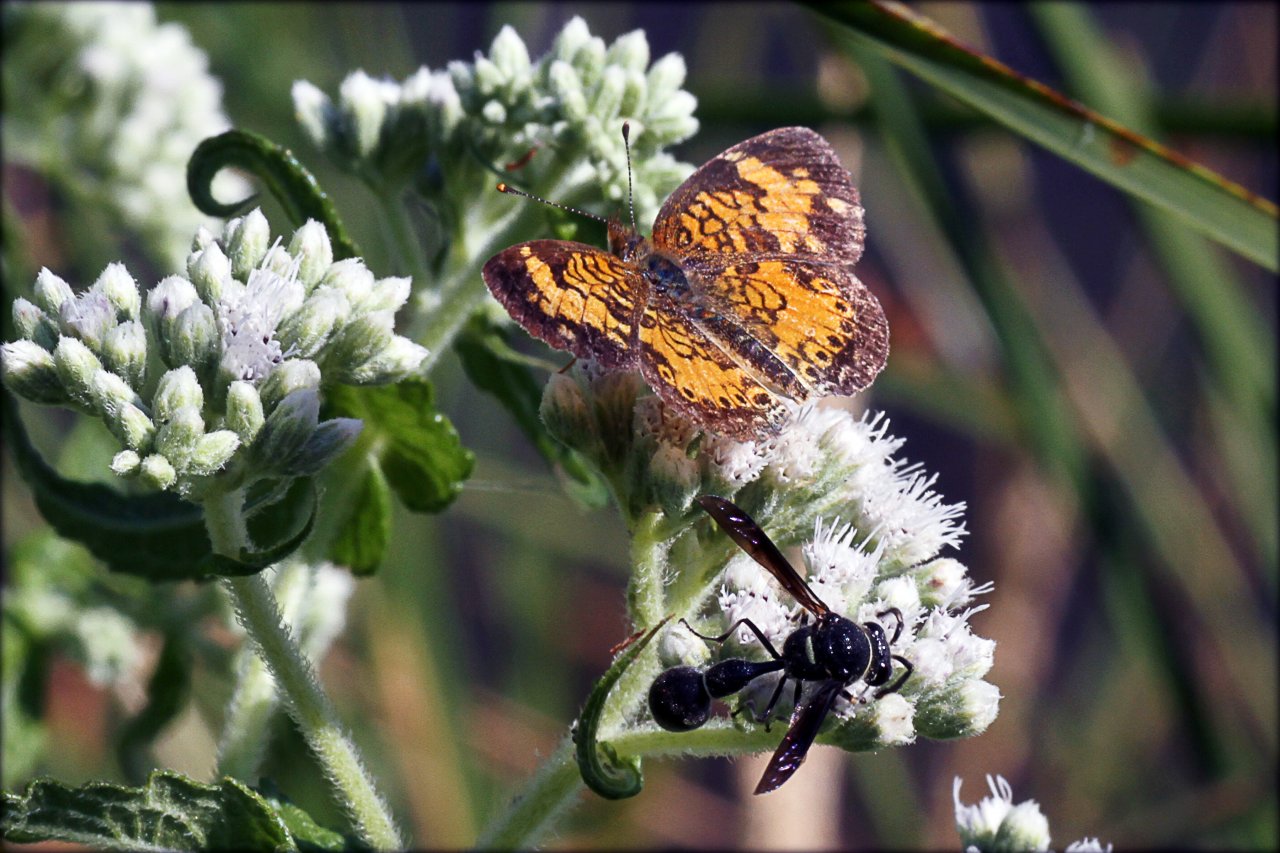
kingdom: Animalia
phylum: Arthropoda
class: Insecta
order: Lepidoptera
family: Nymphalidae
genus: Phyciodes
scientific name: Phyciodes tharos
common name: Northern Crescent
